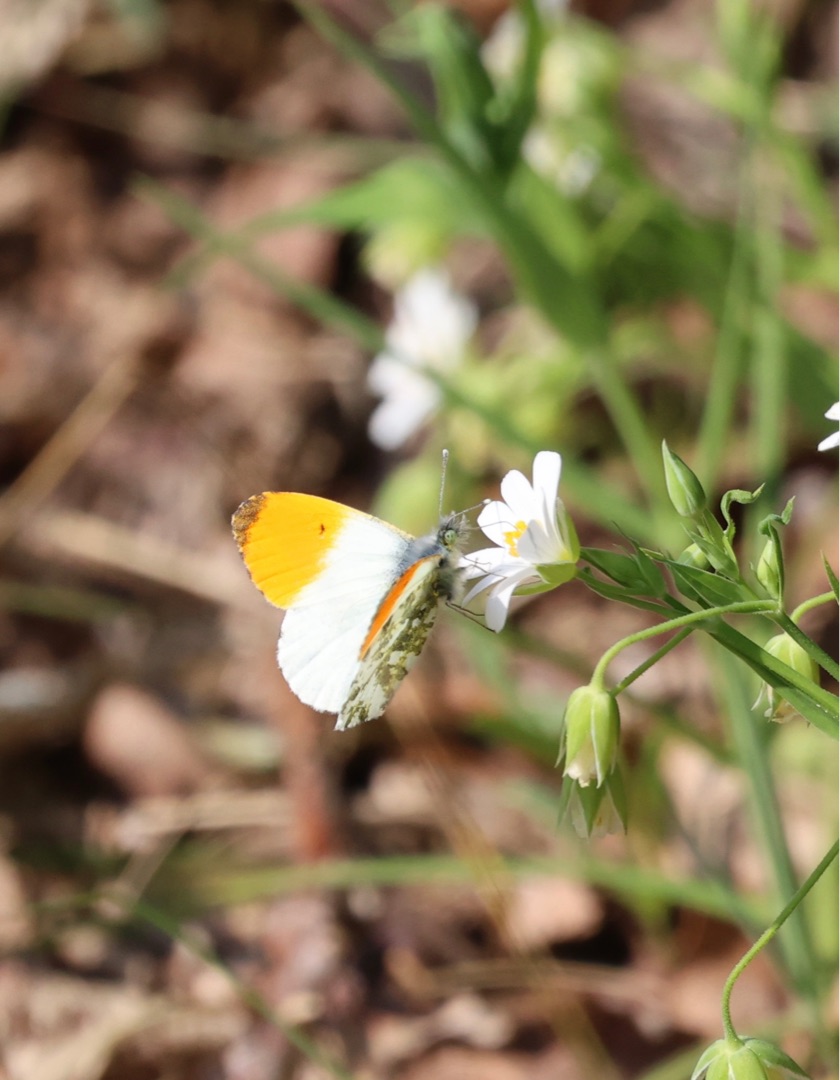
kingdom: Animalia
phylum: Arthropoda
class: Insecta
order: Lepidoptera
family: Pieridae
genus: Anthocharis
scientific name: Anthocharis cardamines
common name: Aurora
